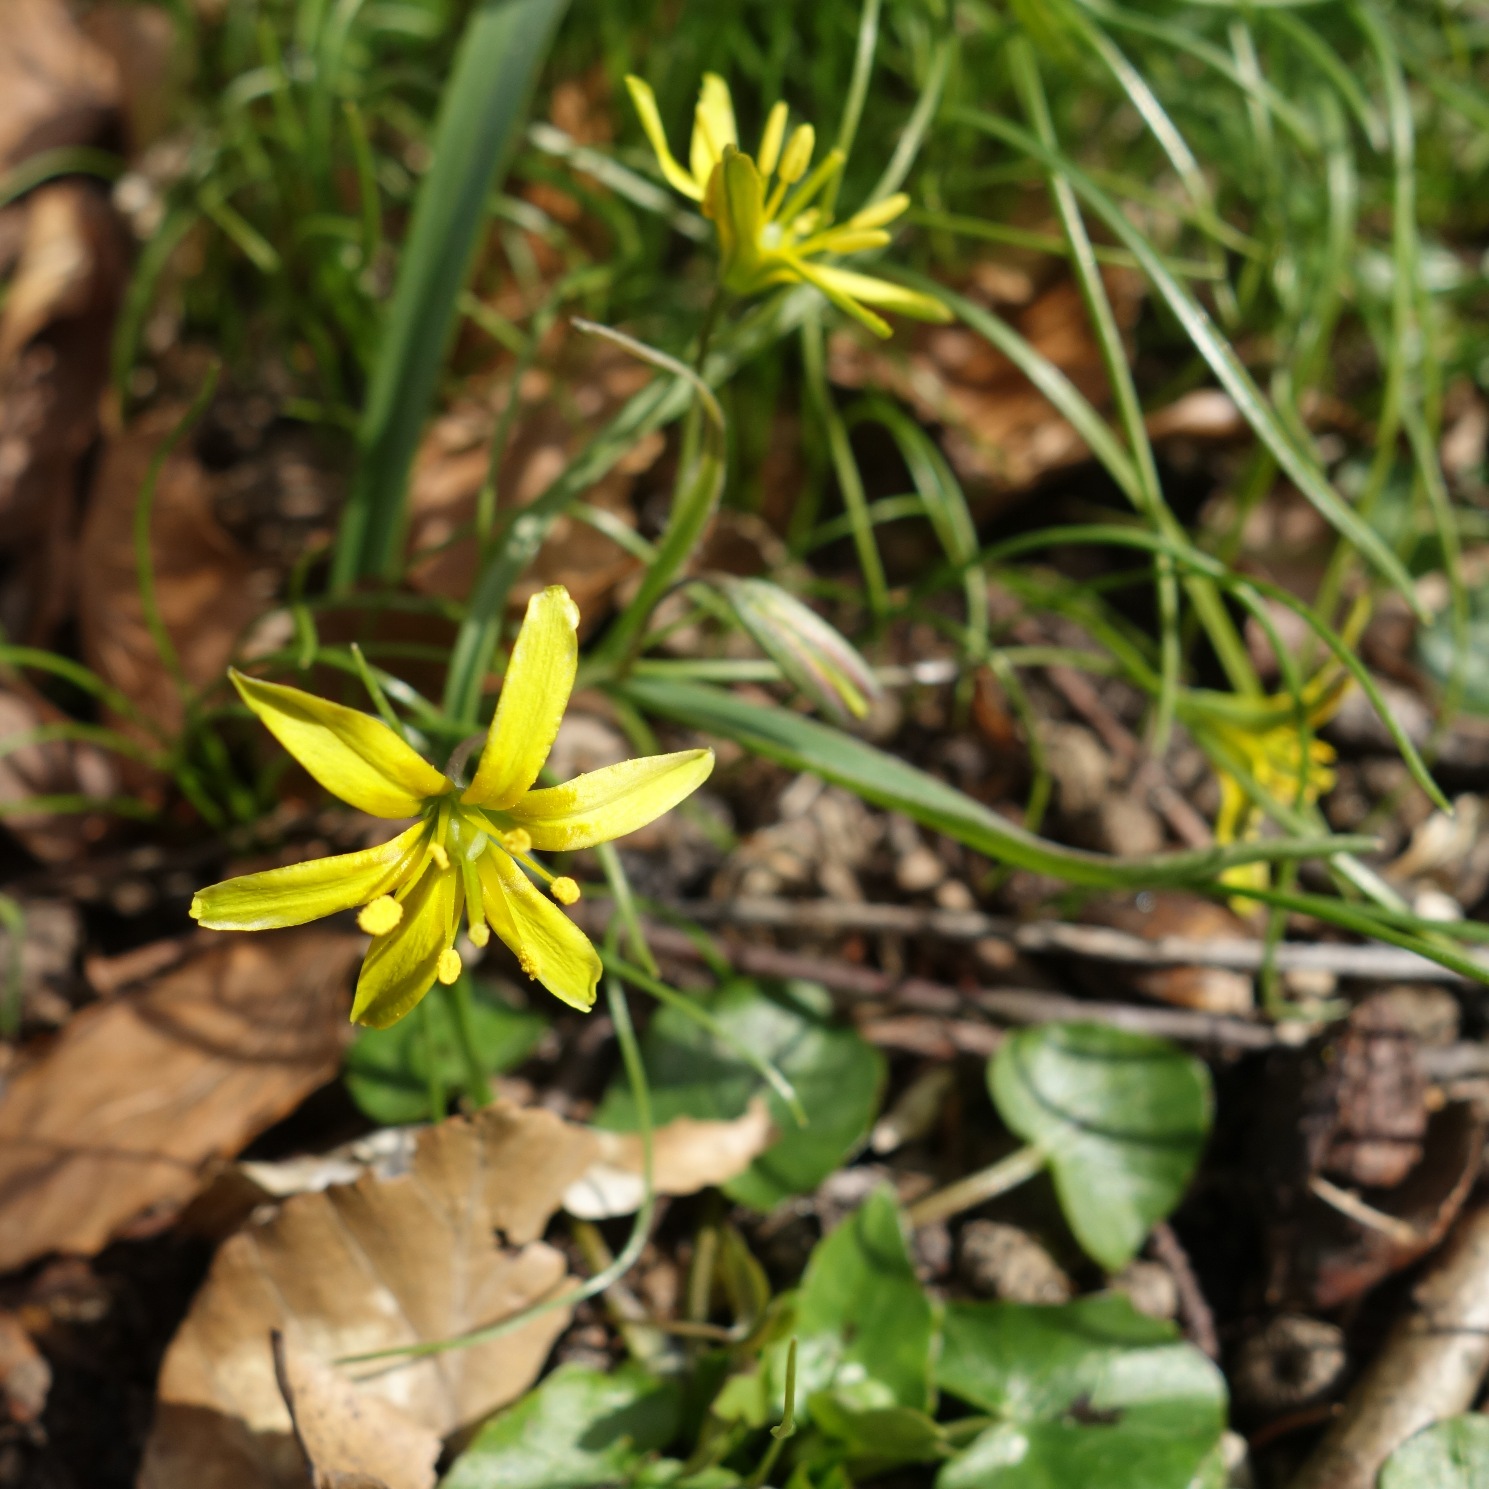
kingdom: Plantae
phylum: Tracheophyta
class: Liliopsida
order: Liliales
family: Liliaceae
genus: Gagea
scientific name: Gagea lutea
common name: Almindelig guldstjerne
